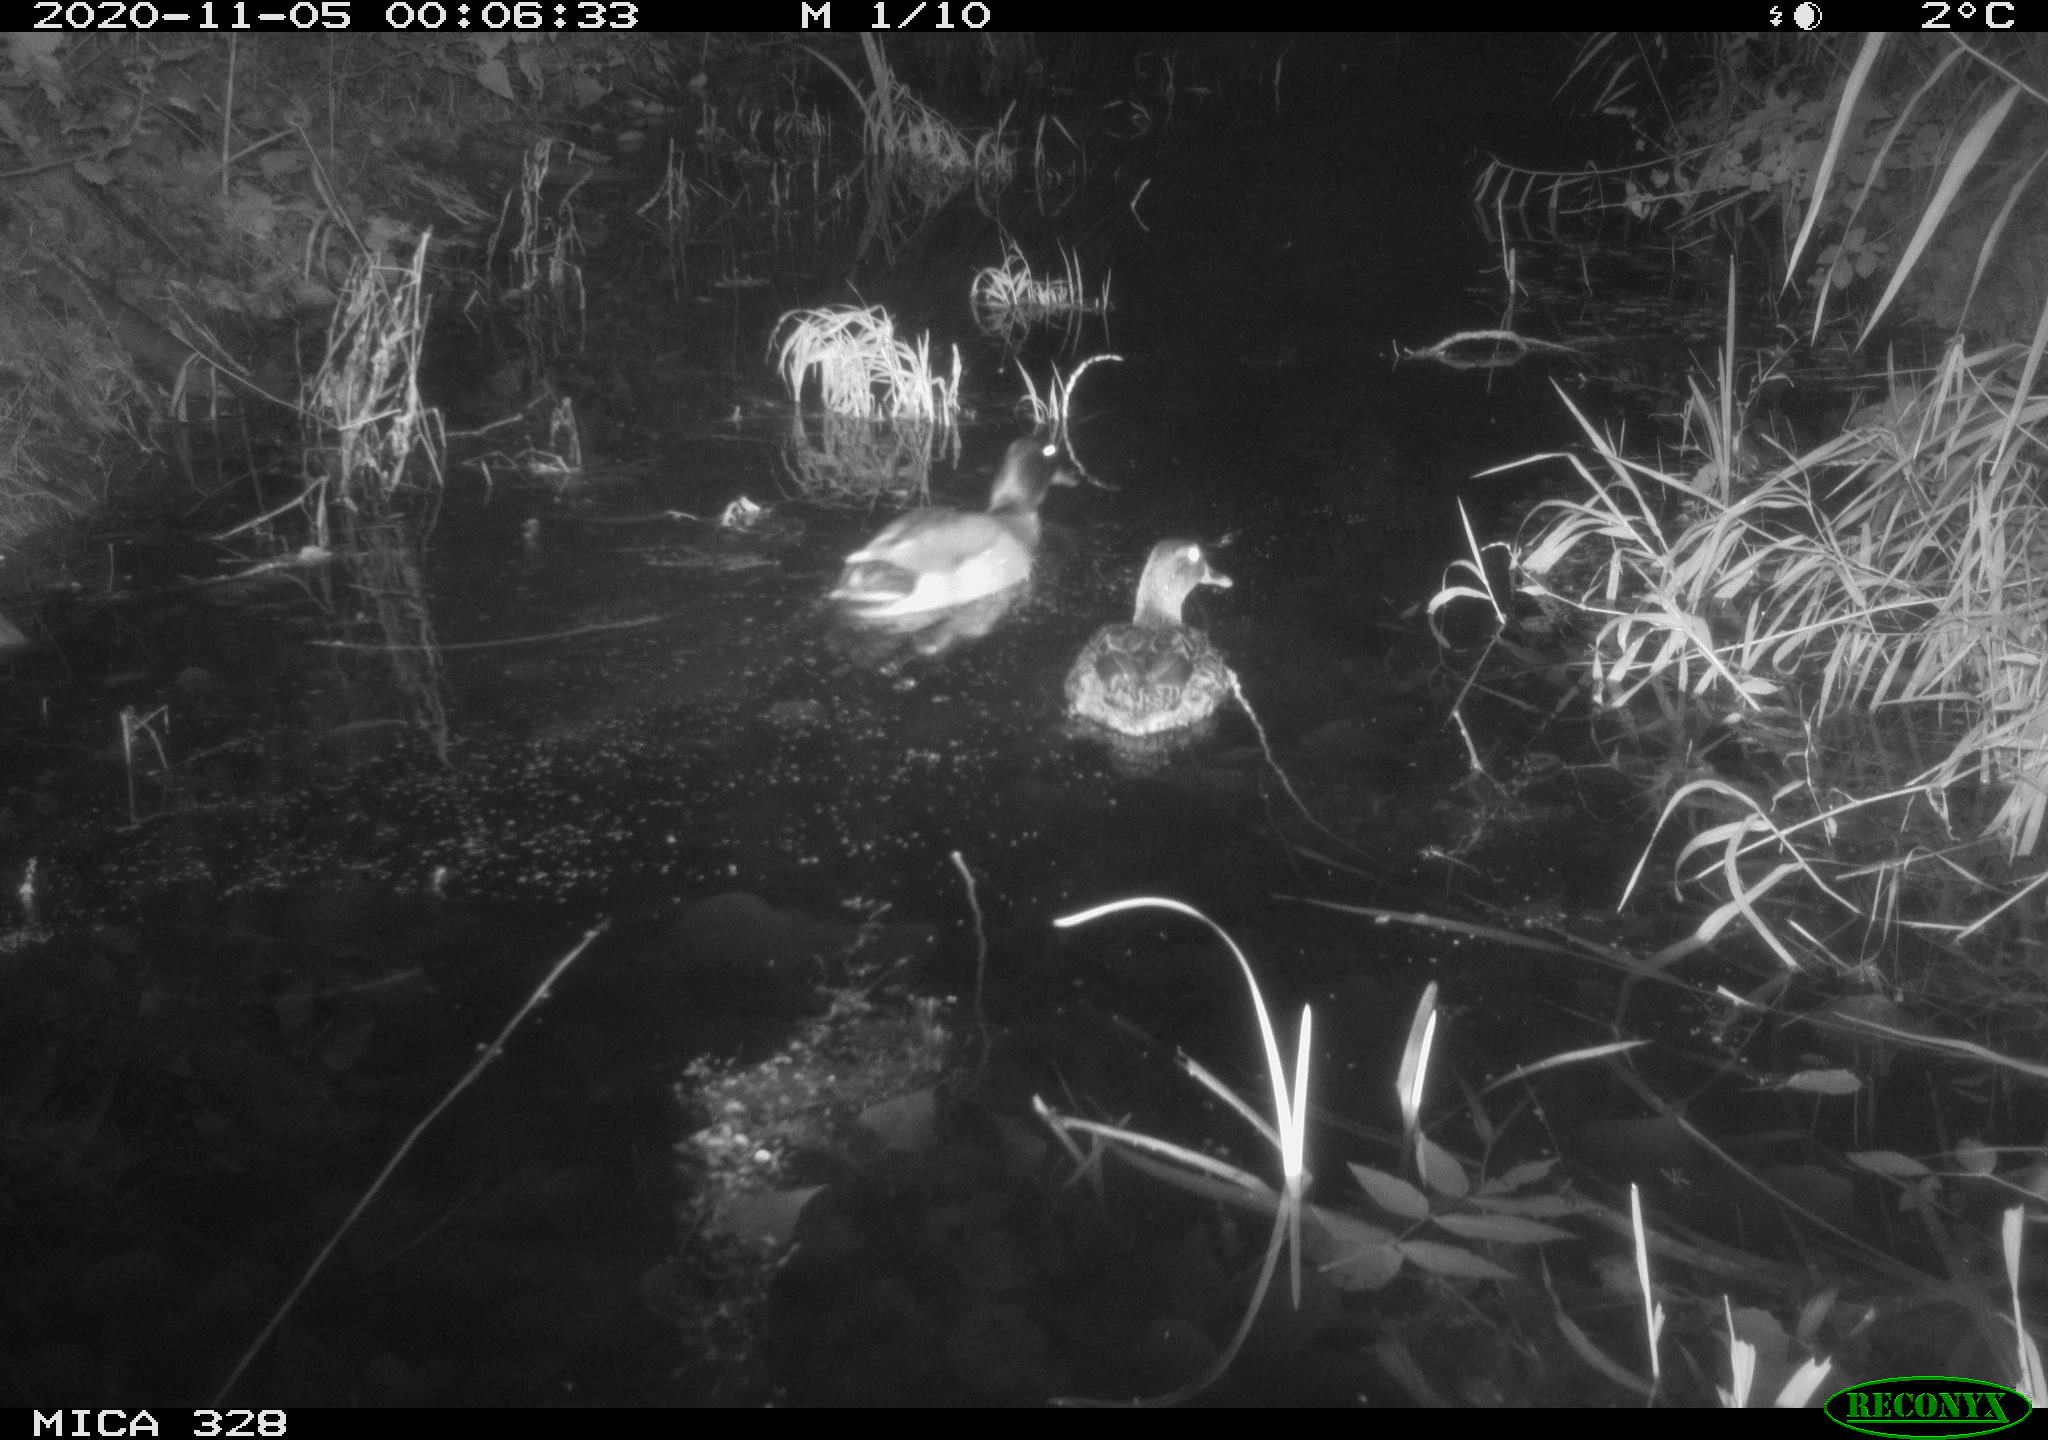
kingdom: Animalia
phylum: Chordata
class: Aves
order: Anseriformes
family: Anatidae
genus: Anas
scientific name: Anas platyrhynchos
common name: Mallard
